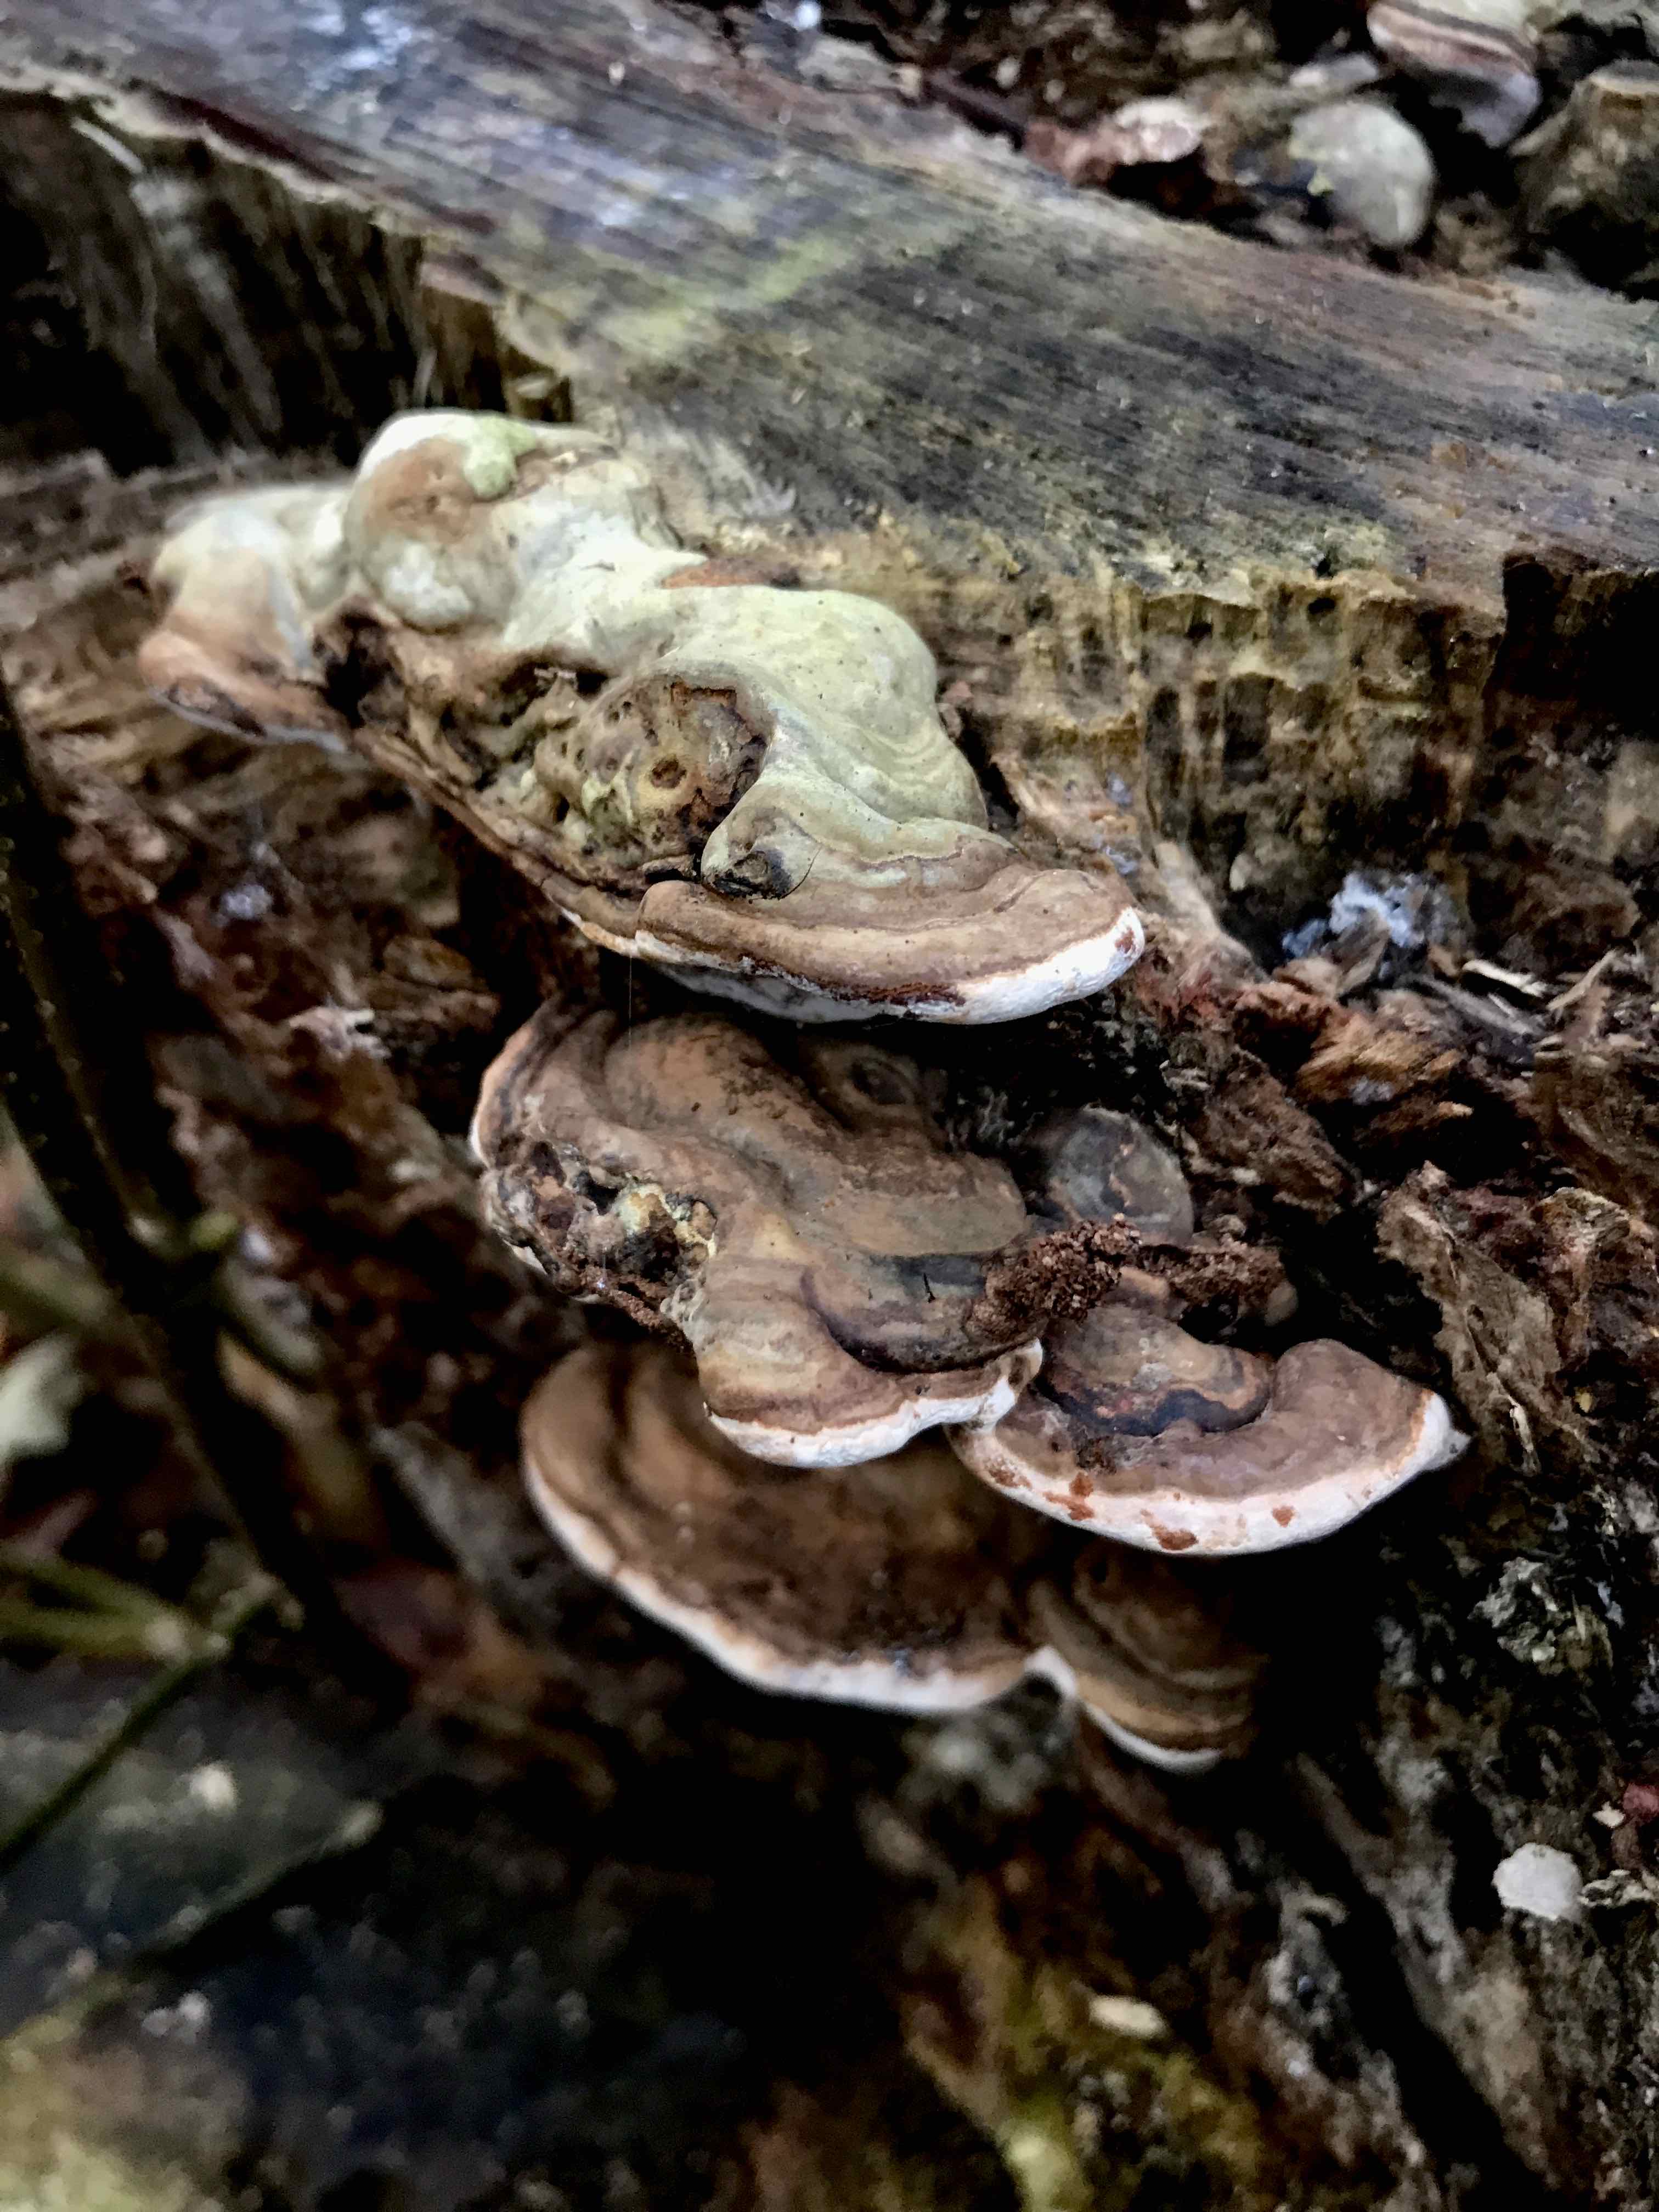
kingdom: Fungi
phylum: Basidiomycota
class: Agaricomycetes
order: Polyporales
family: Polyporaceae
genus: Ganoderma
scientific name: Ganoderma applanatum
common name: flad lakporesvamp
